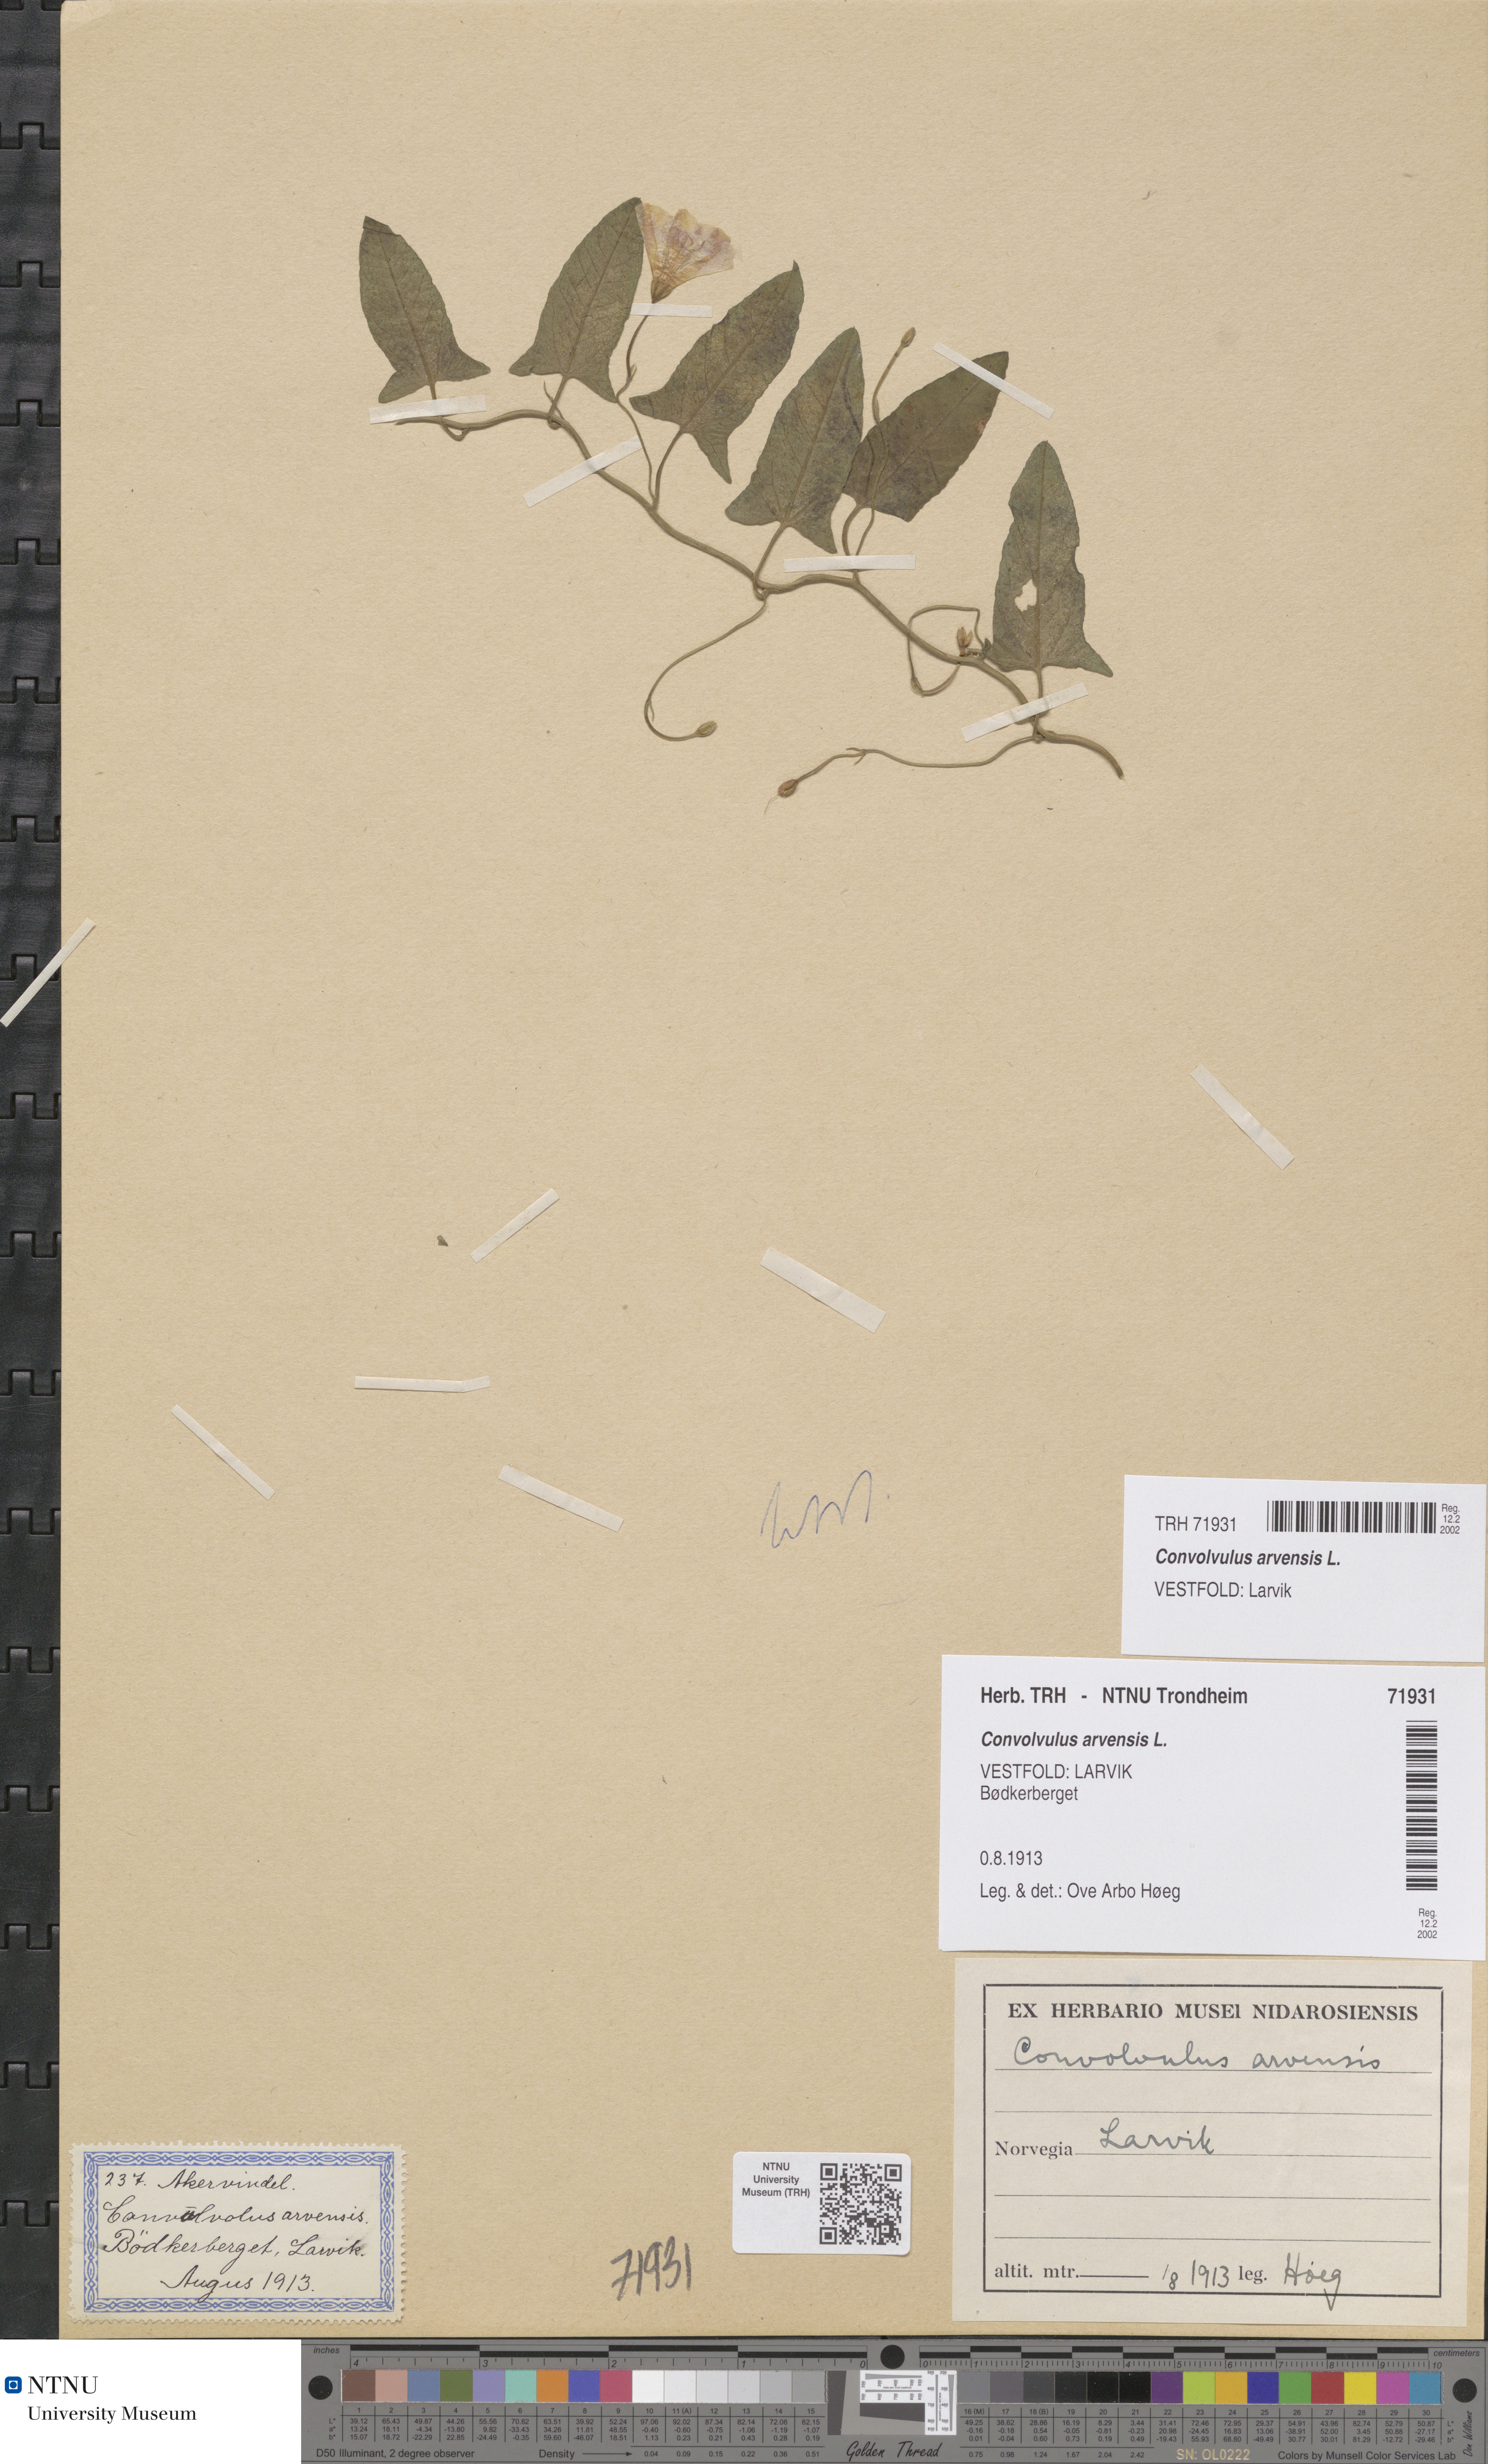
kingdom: Plantae
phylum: Tracheophyta
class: Magnoliopsida
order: Solanales
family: Convolvulaceae
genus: Convolvulus
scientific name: Convolvulus arvensis
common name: Field bindweed
